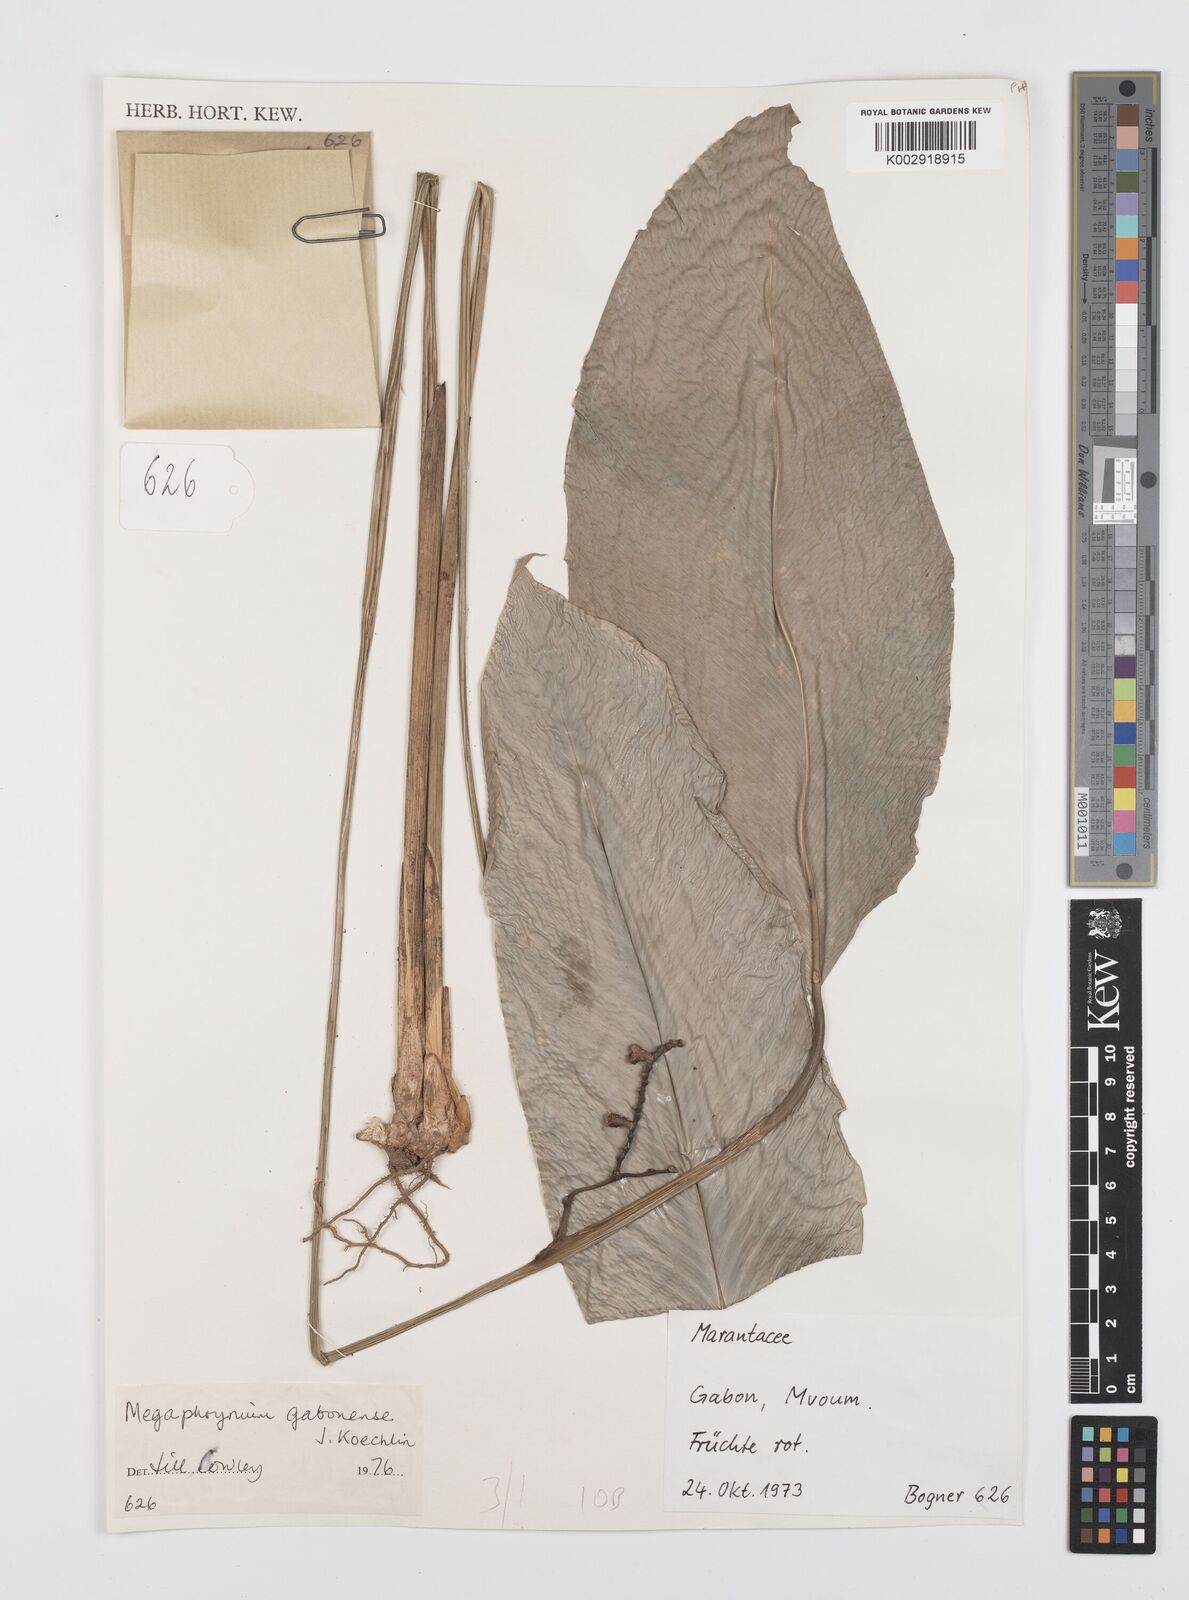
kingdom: Plantae
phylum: Tracheophyta
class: Liliopsida
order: Zingiberales
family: Marantaceae
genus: Megaphrynium
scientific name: Megaphrynium gabonense
